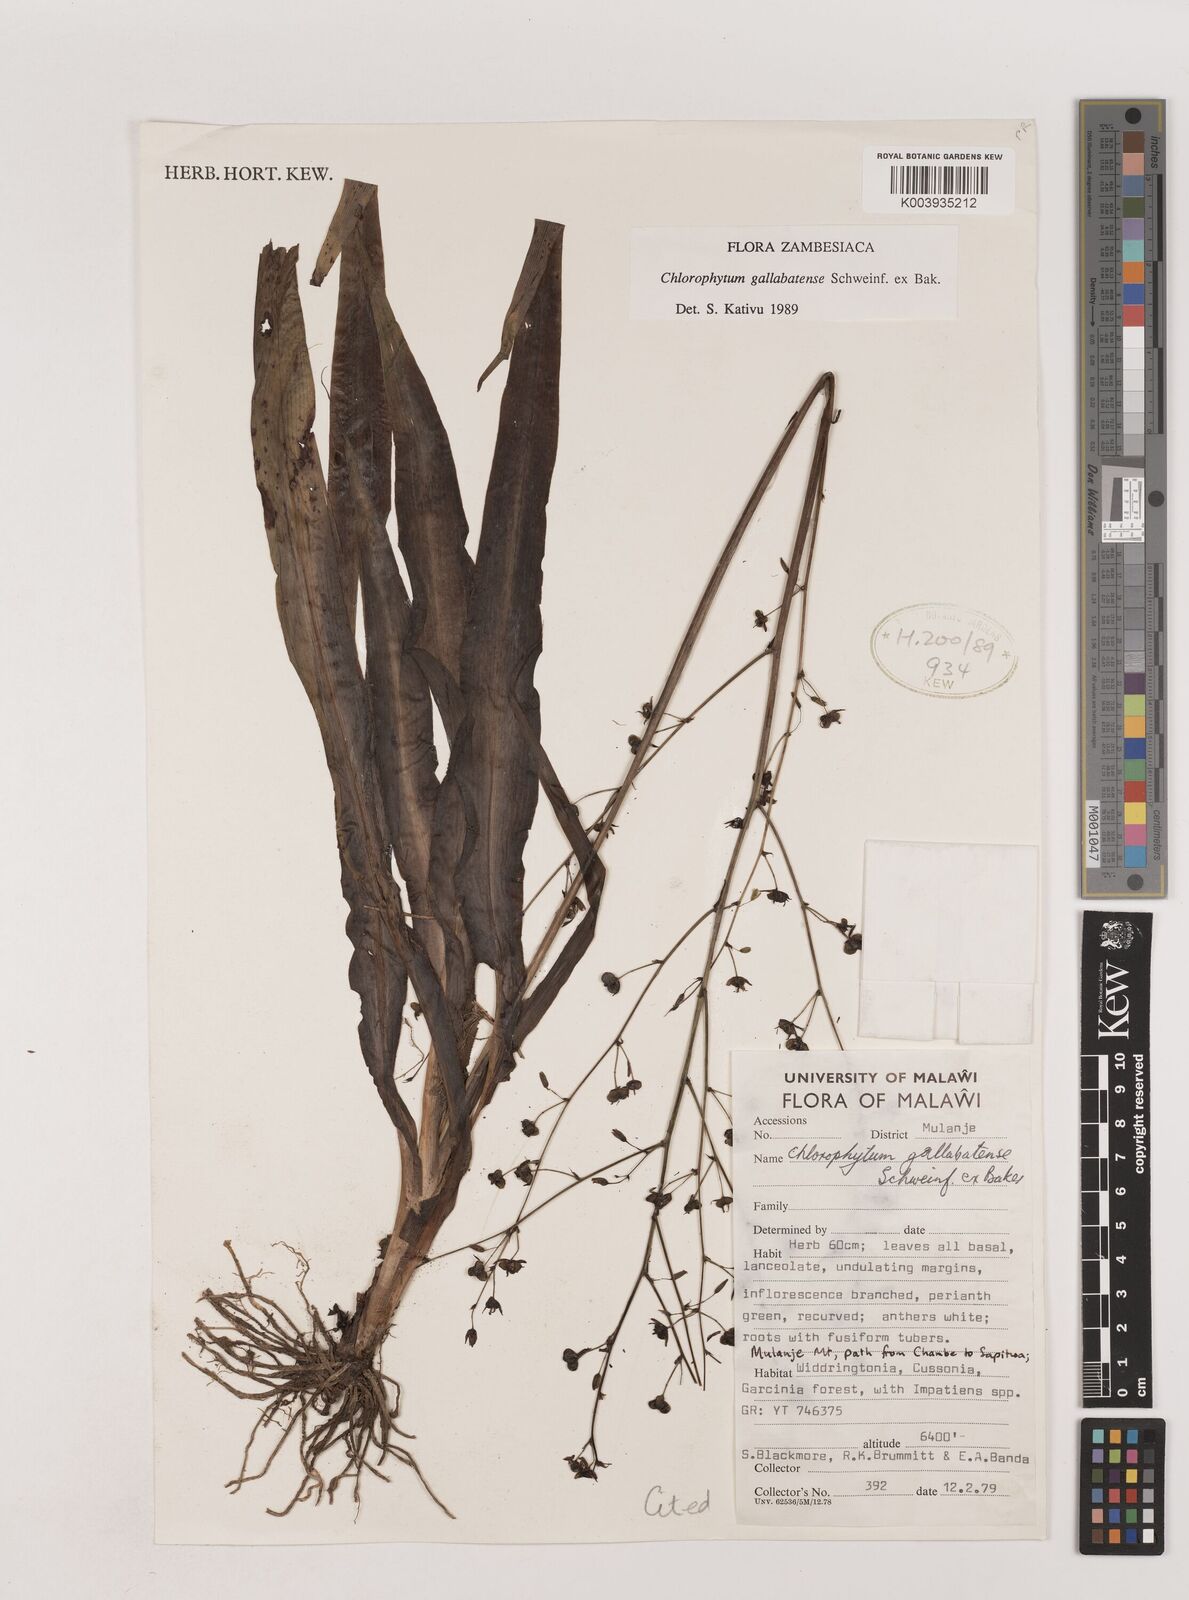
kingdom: Plantae
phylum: Tracheophyta
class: Liliopsida
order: Asparagales
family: Asparagaceae
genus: Chlorophytum
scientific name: Chlorophytum gallabatense
